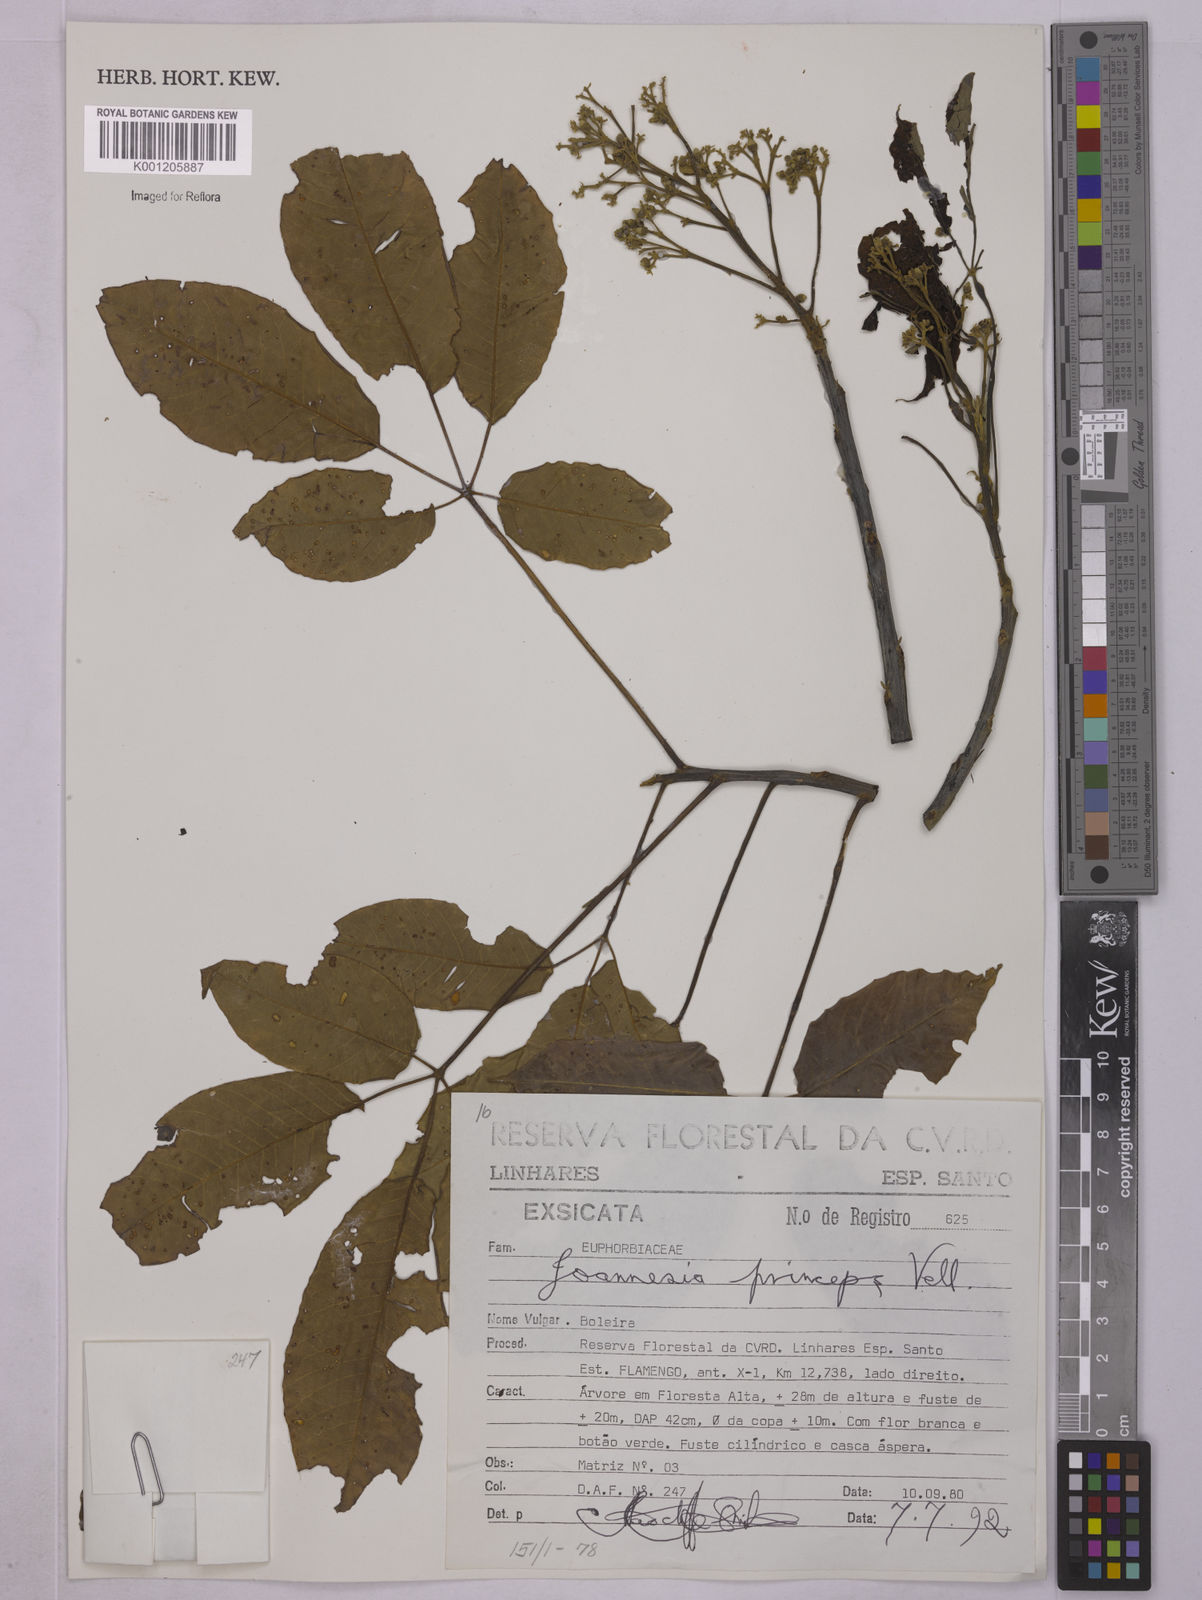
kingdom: Plantae
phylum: Tracheophyta
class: Magnoliopsida
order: Malpighiales
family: Euphorbiaceae
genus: Joannesia
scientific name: Joannesia princeps
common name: Arara nut-tree
